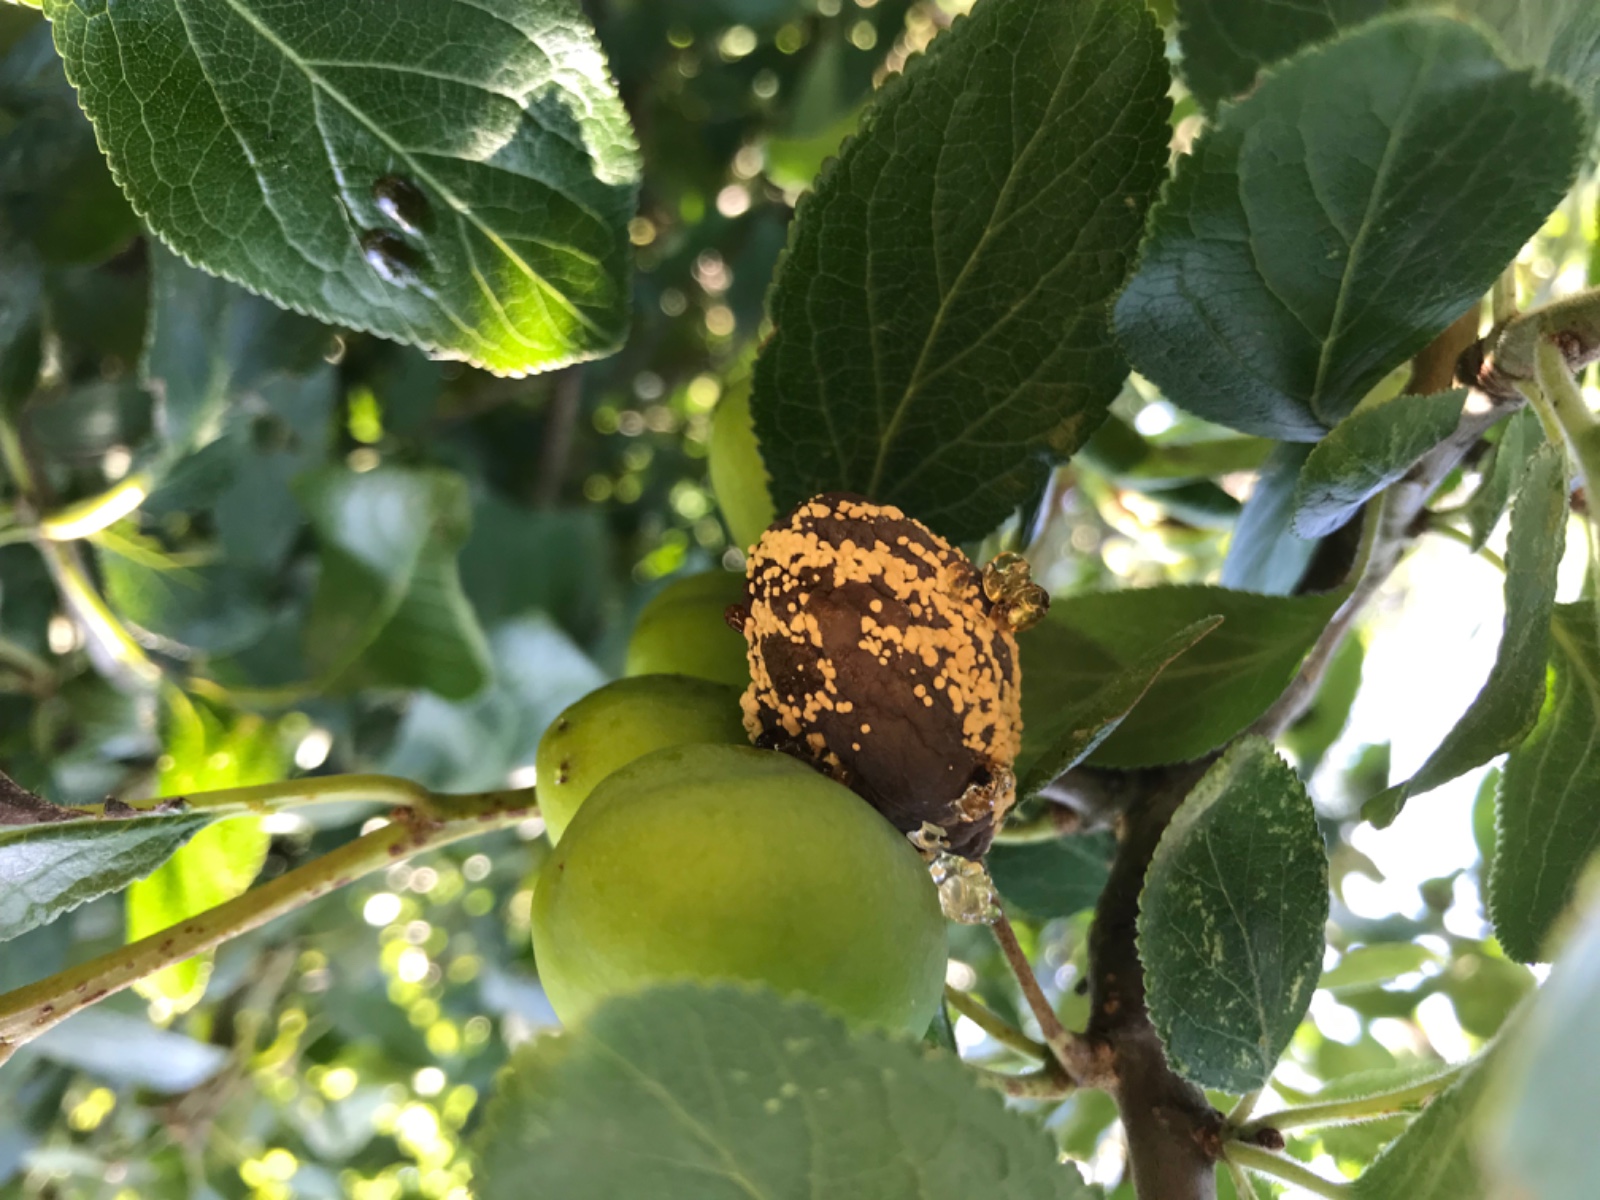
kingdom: Fungi
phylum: Ascomycota
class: Leotiomycetes
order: Helotiales
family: Sclerotiniaceae
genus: Monilinia
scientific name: Monilinia laxa
